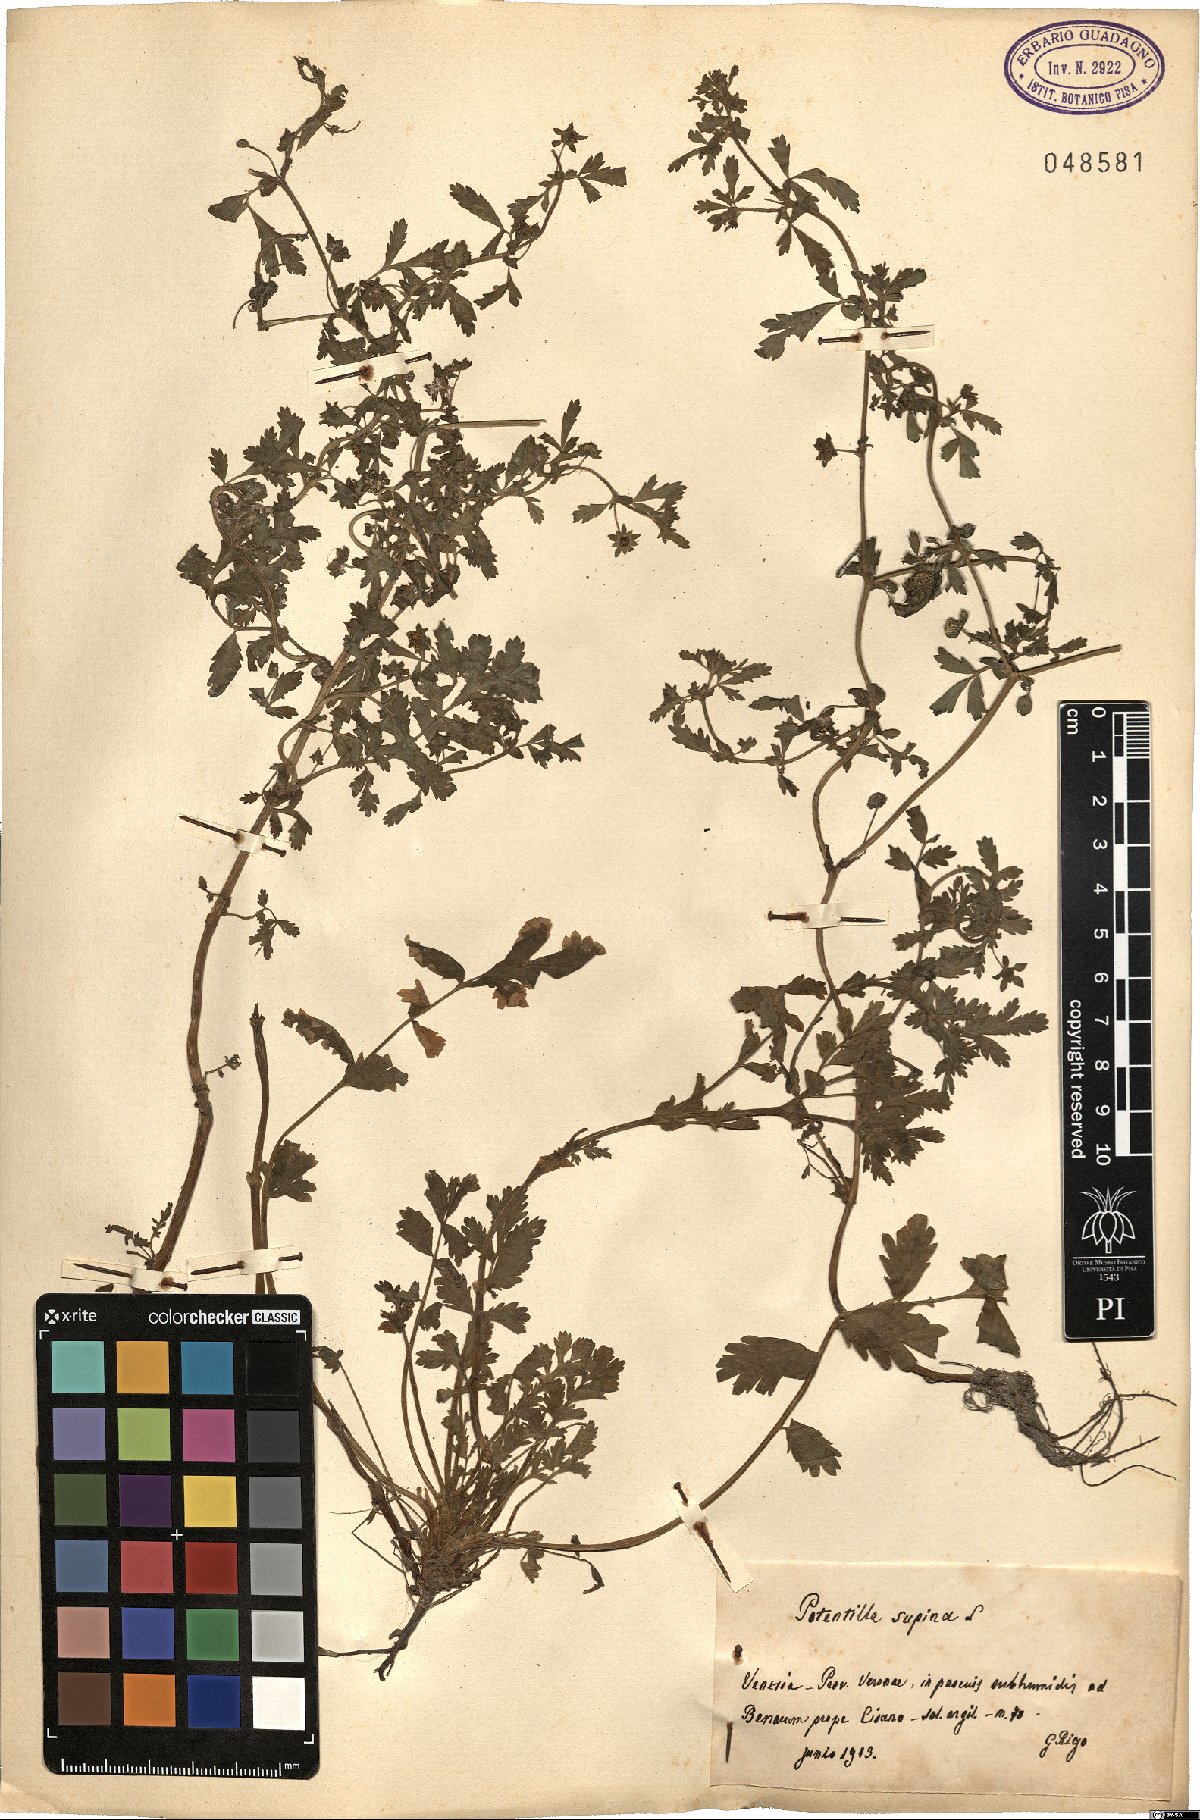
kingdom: Plantae
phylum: Tracheophyta
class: Magnoliopsida
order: Rosales
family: Rosaceae
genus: Potentilla
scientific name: Potentilla supina
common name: Prostrate cinquefoil
